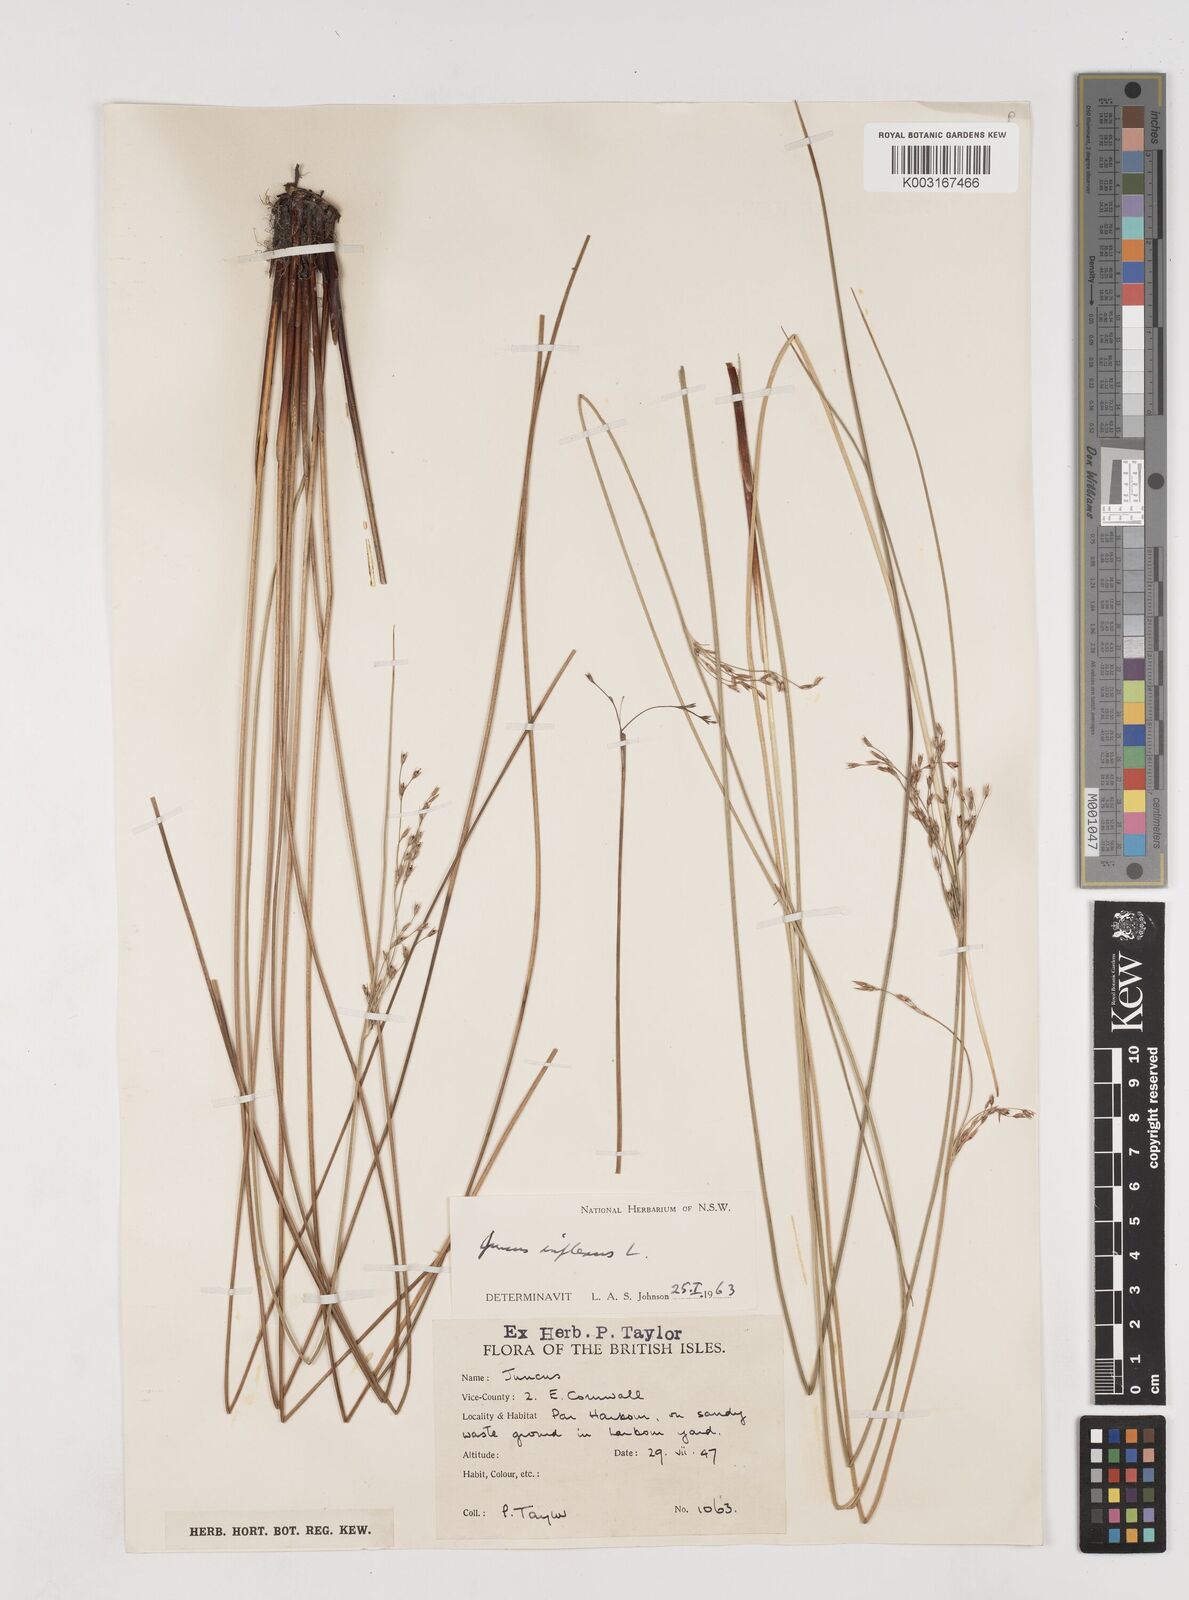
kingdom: Plantae
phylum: Tracheophyta
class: Liliopsida
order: Poales
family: Juncaceae
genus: Juncus
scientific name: Juncus inflexus
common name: Hard rush
